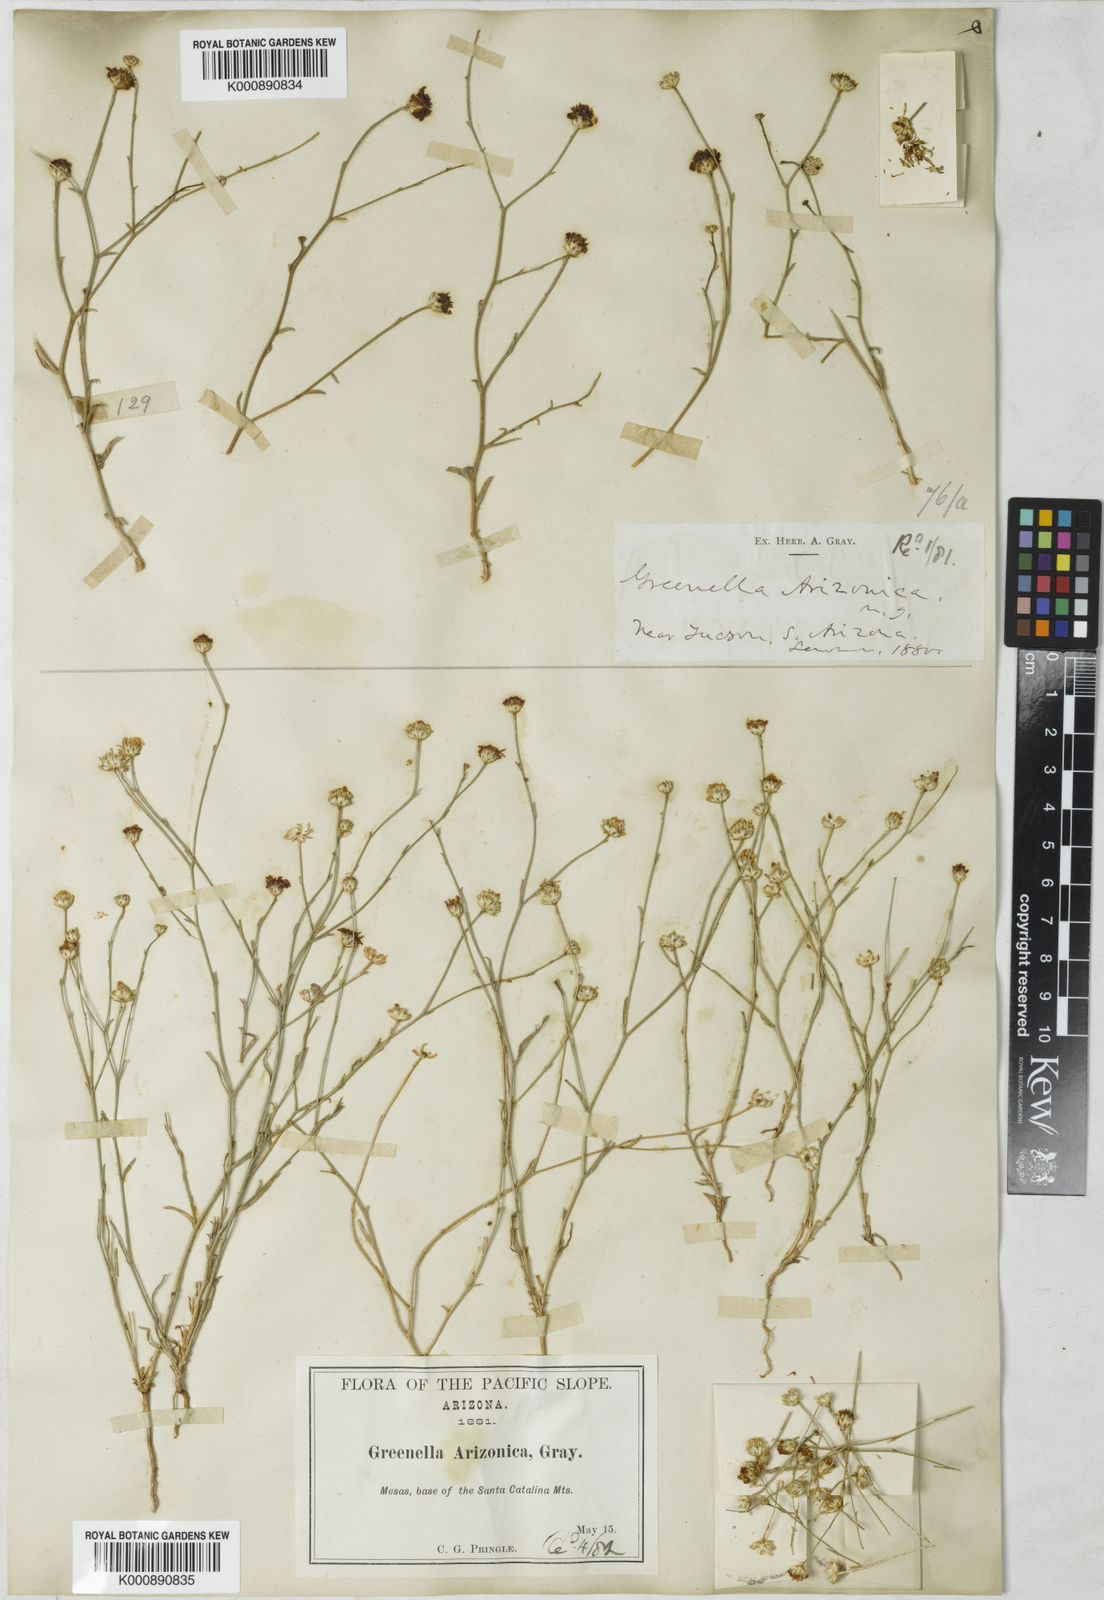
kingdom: Plantae
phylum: Tracheophyta
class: Magnoliopsida
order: Asterales
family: Asteraceae
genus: Gutierrezia
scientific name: Gutierrezia arizonica
